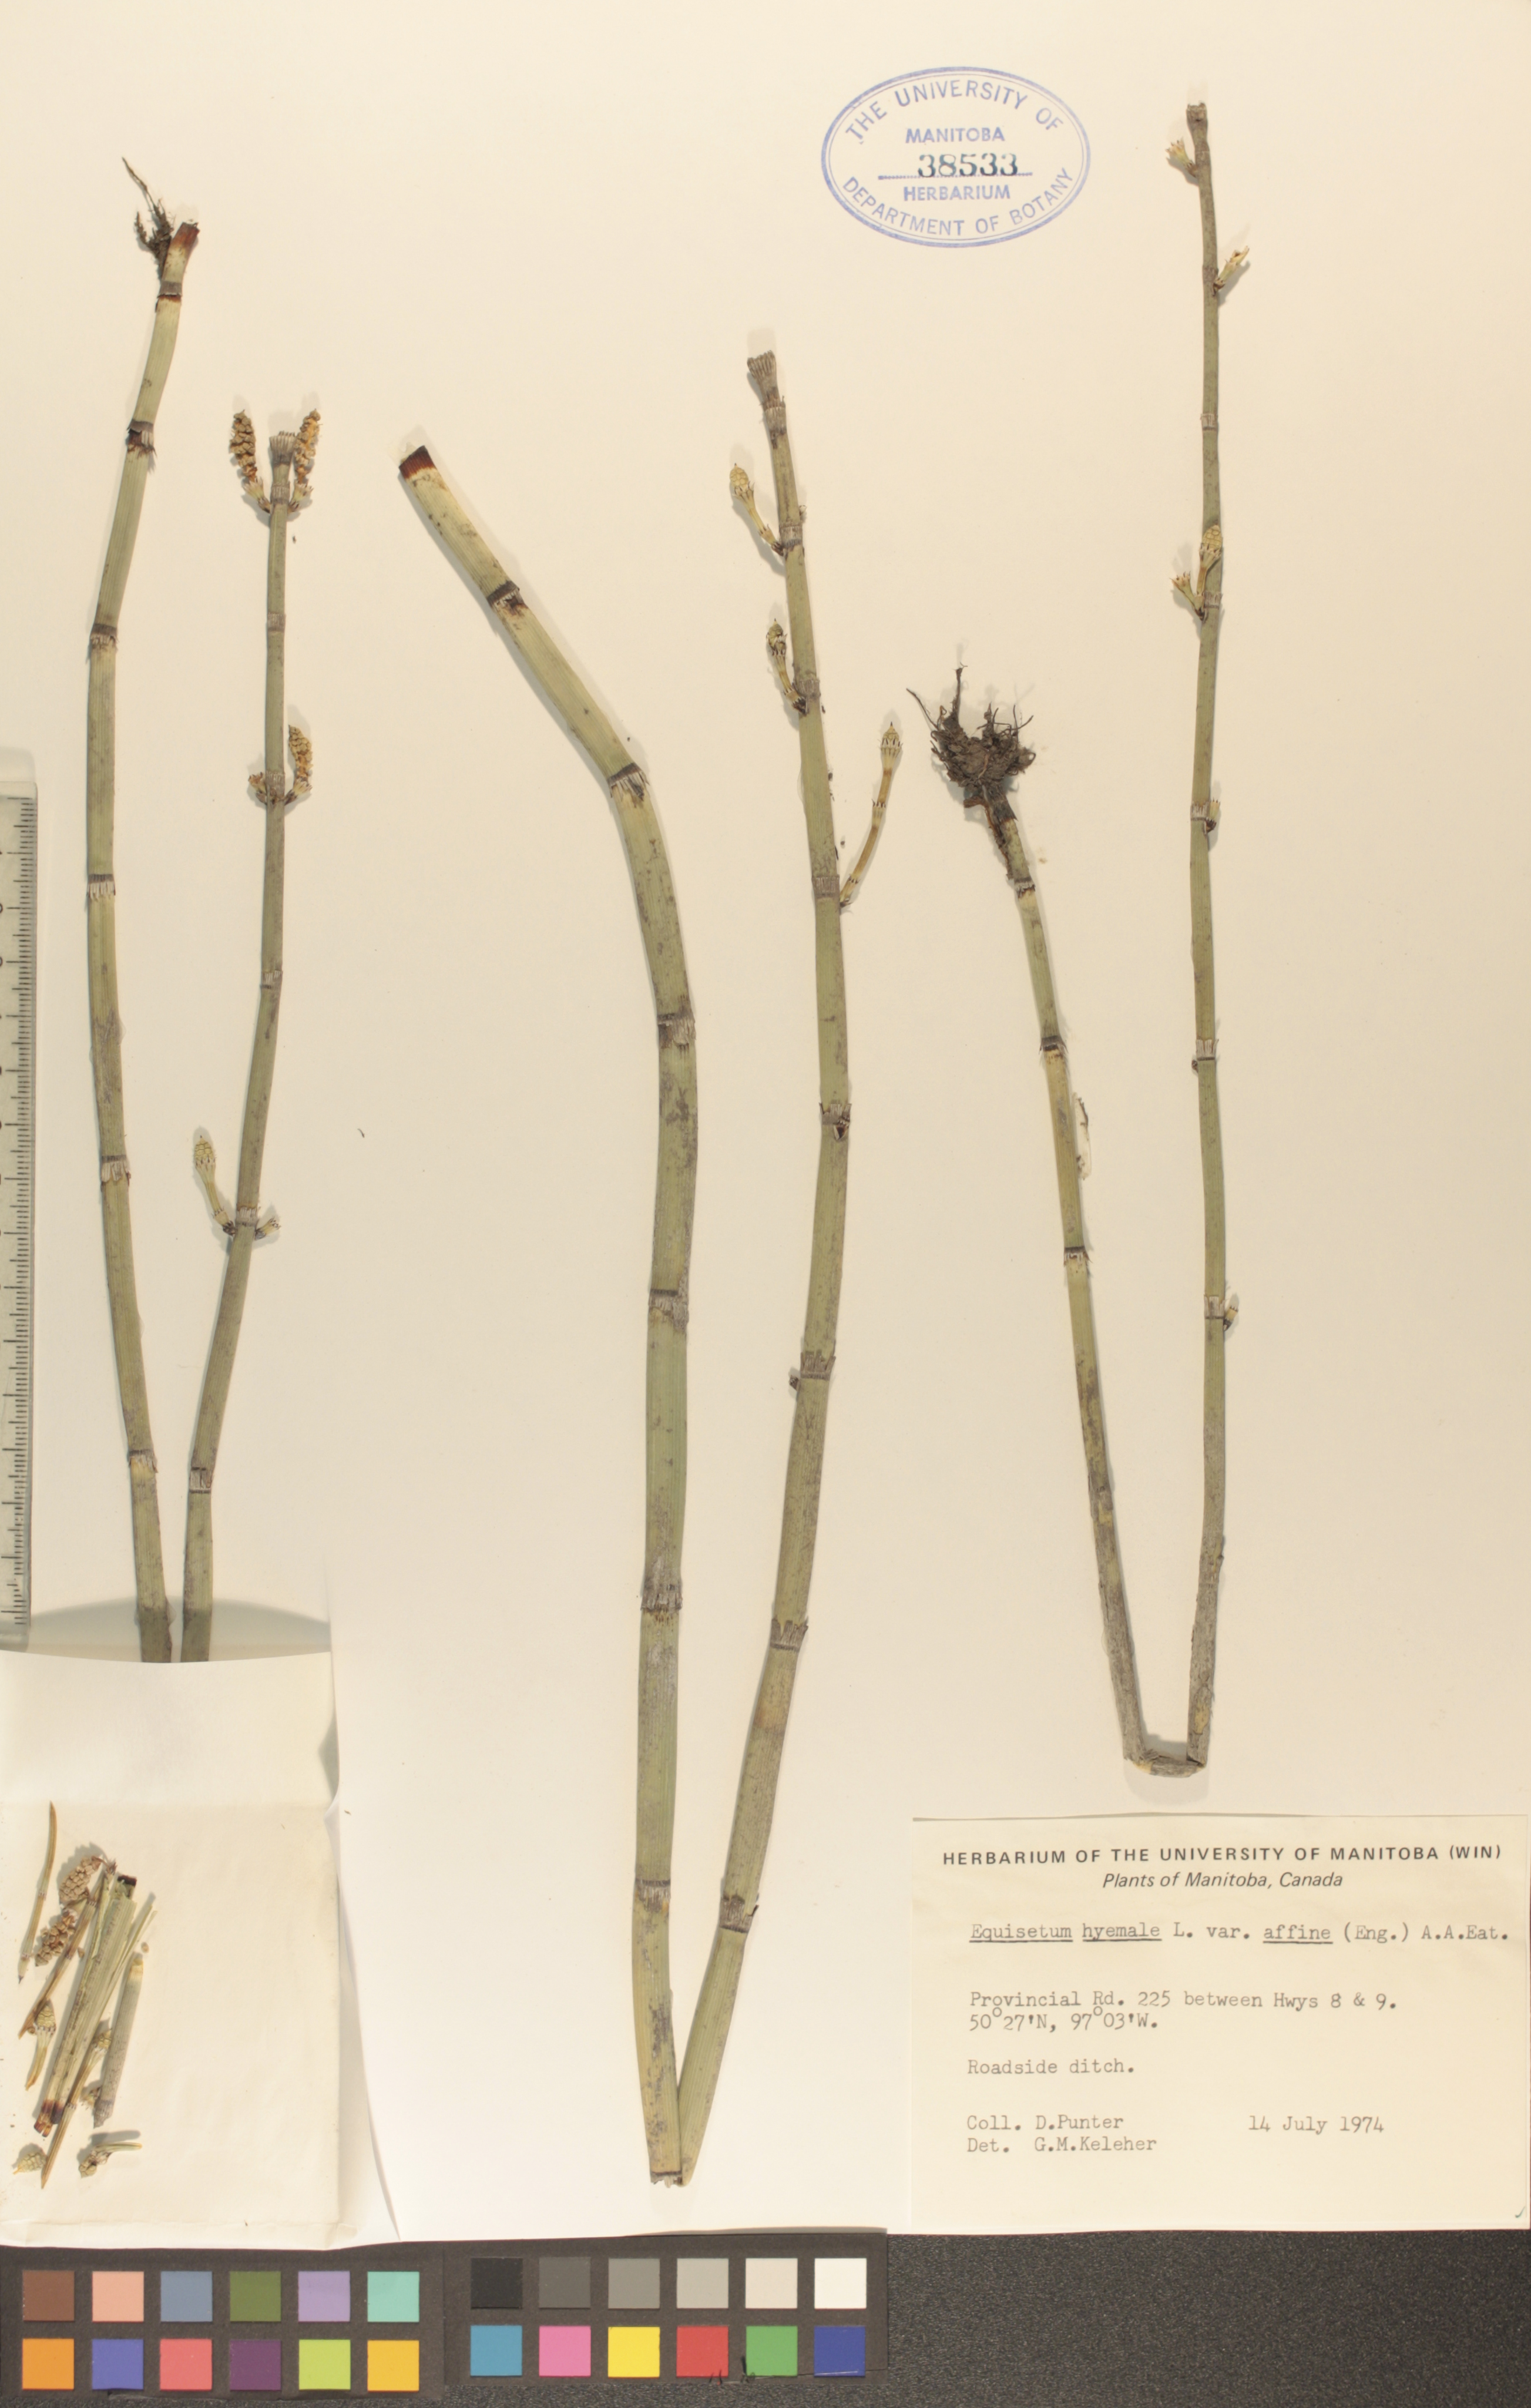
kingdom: Plantae
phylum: Tracheophyta
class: Polypodiopsida
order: Equisetales
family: Equisetaceae
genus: Equisetum
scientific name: Equisetum praealtum
